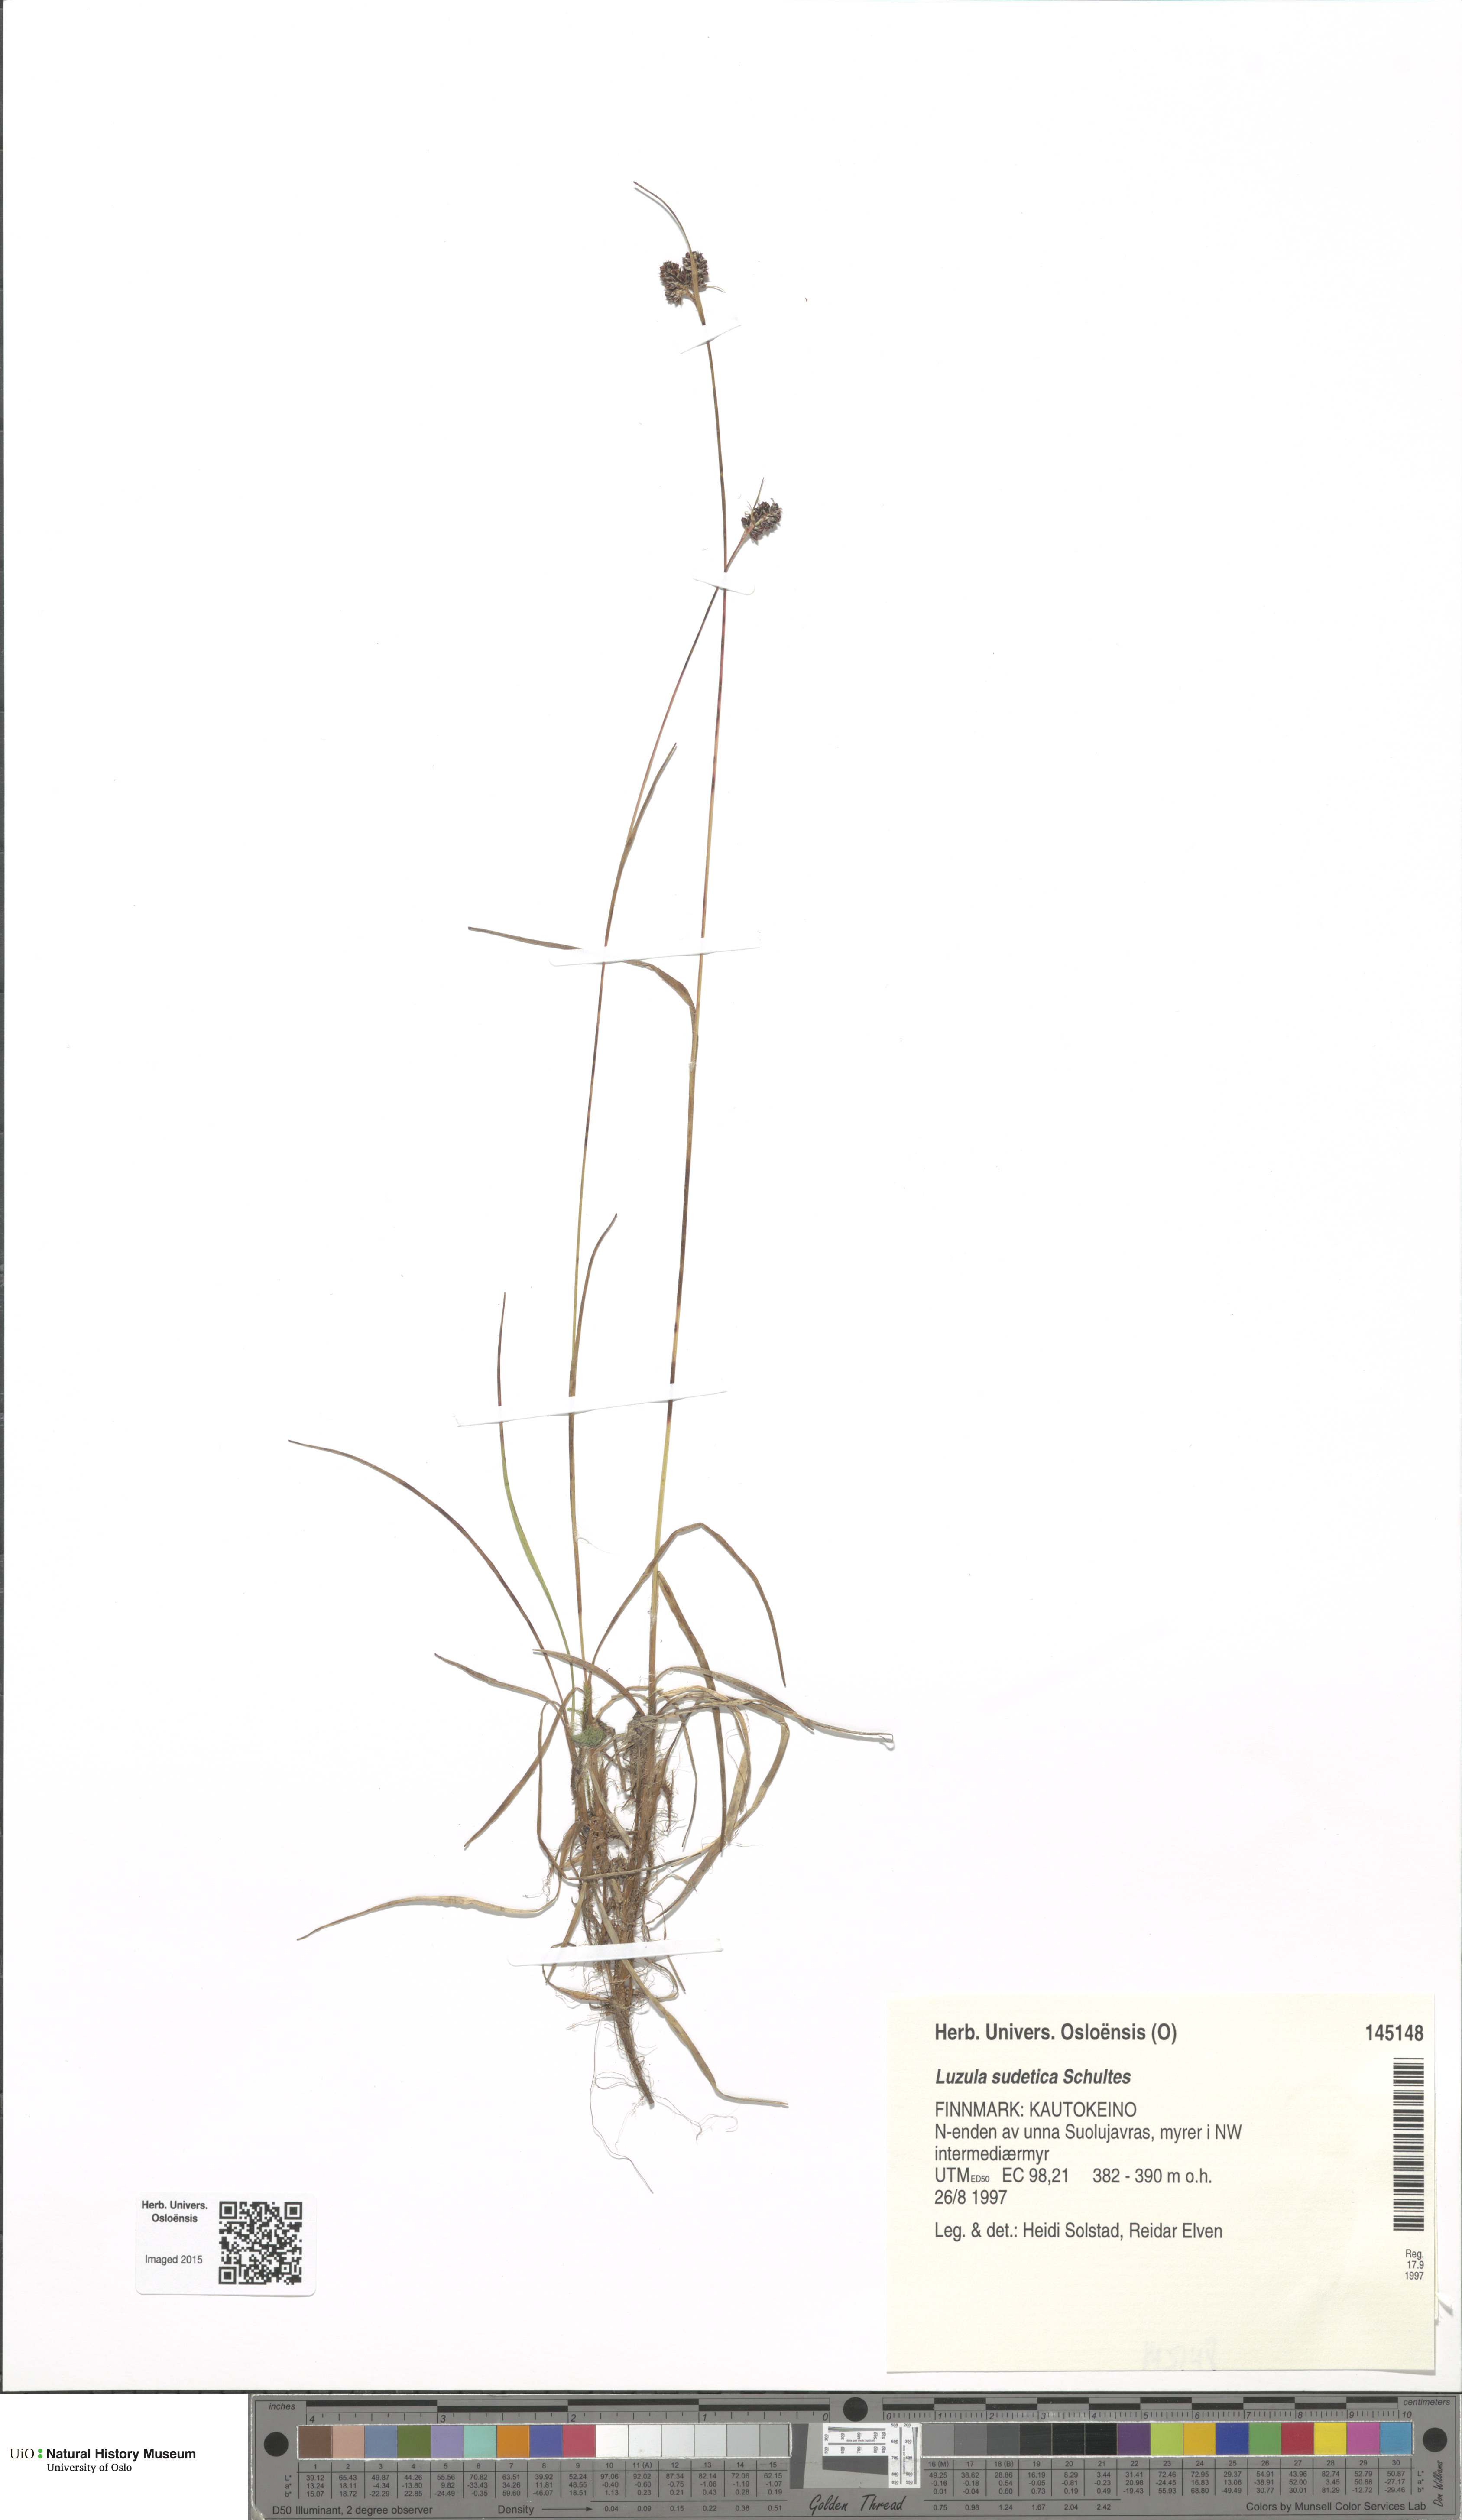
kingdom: Plantae
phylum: Tracheophyta
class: Liliopsida
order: Poales
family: Juncaceae
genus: Luzula
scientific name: Luzula sudetica
